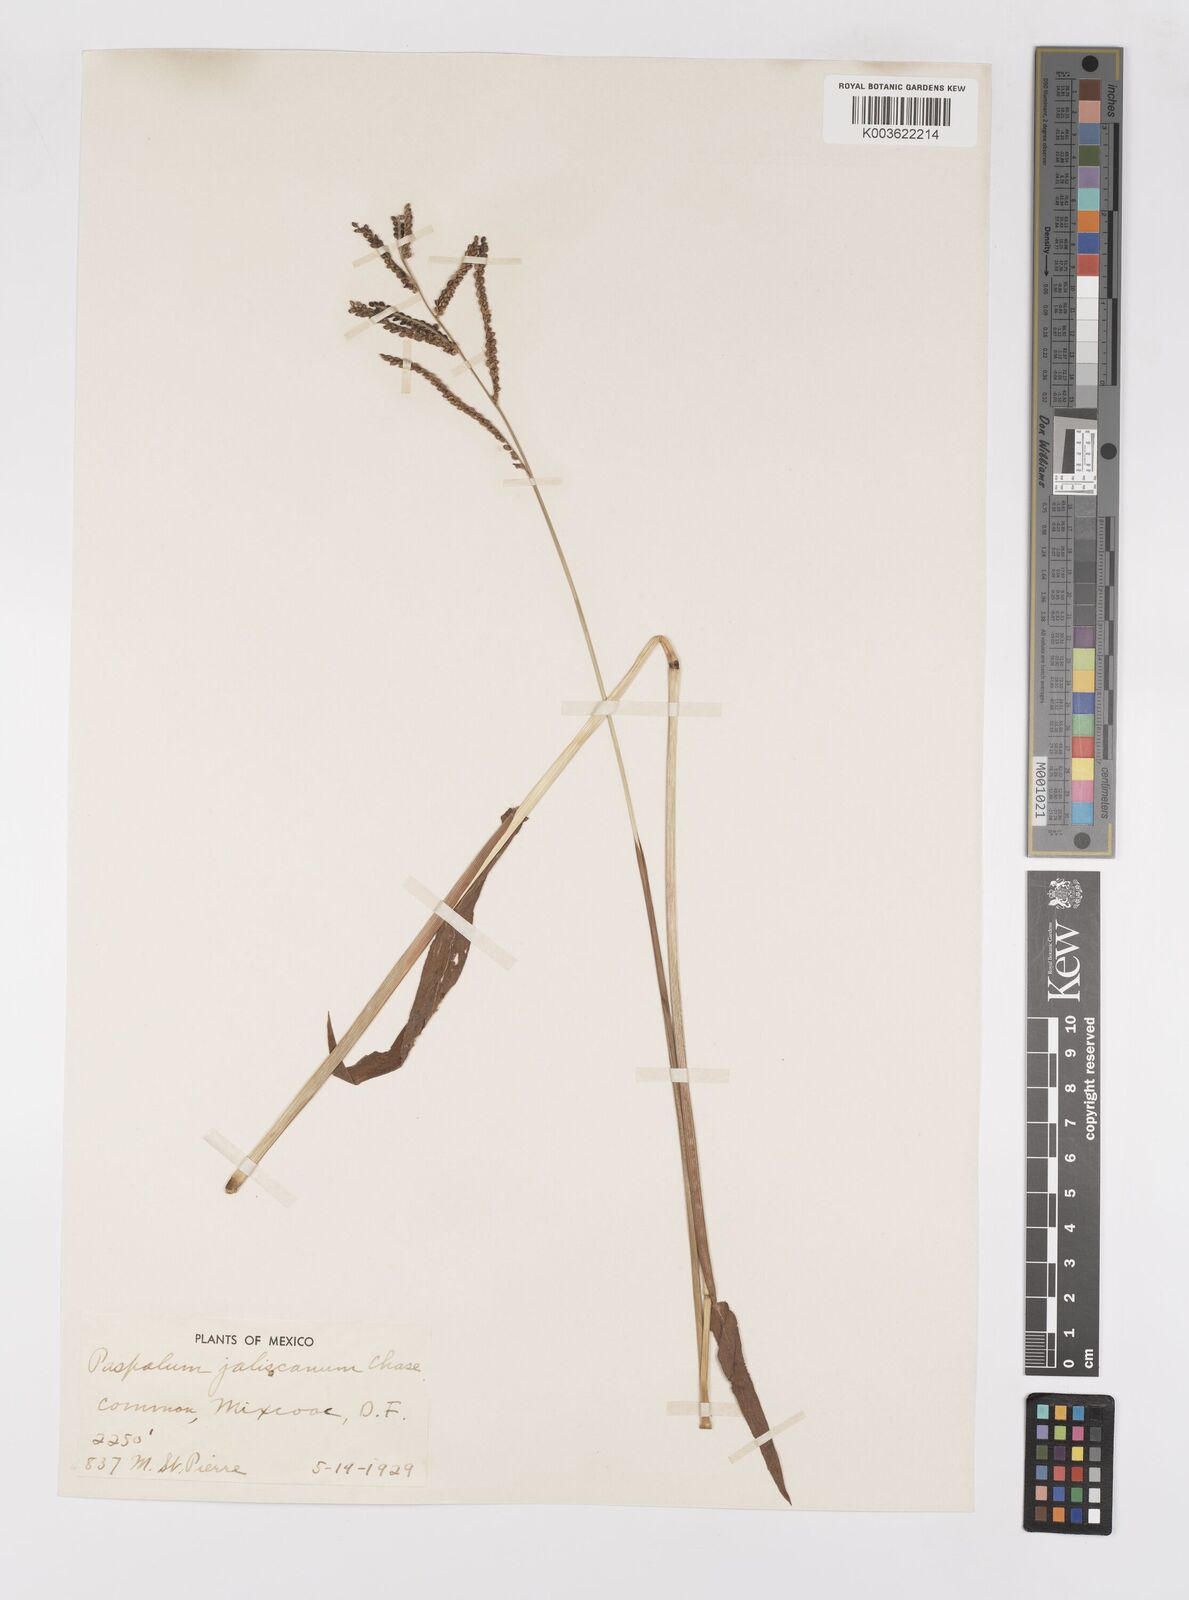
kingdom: Plantae
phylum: Tracheophyta
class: Liliopsida
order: Poales
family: Poaceae
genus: Paspalum
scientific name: Paspalum jaliscanum
